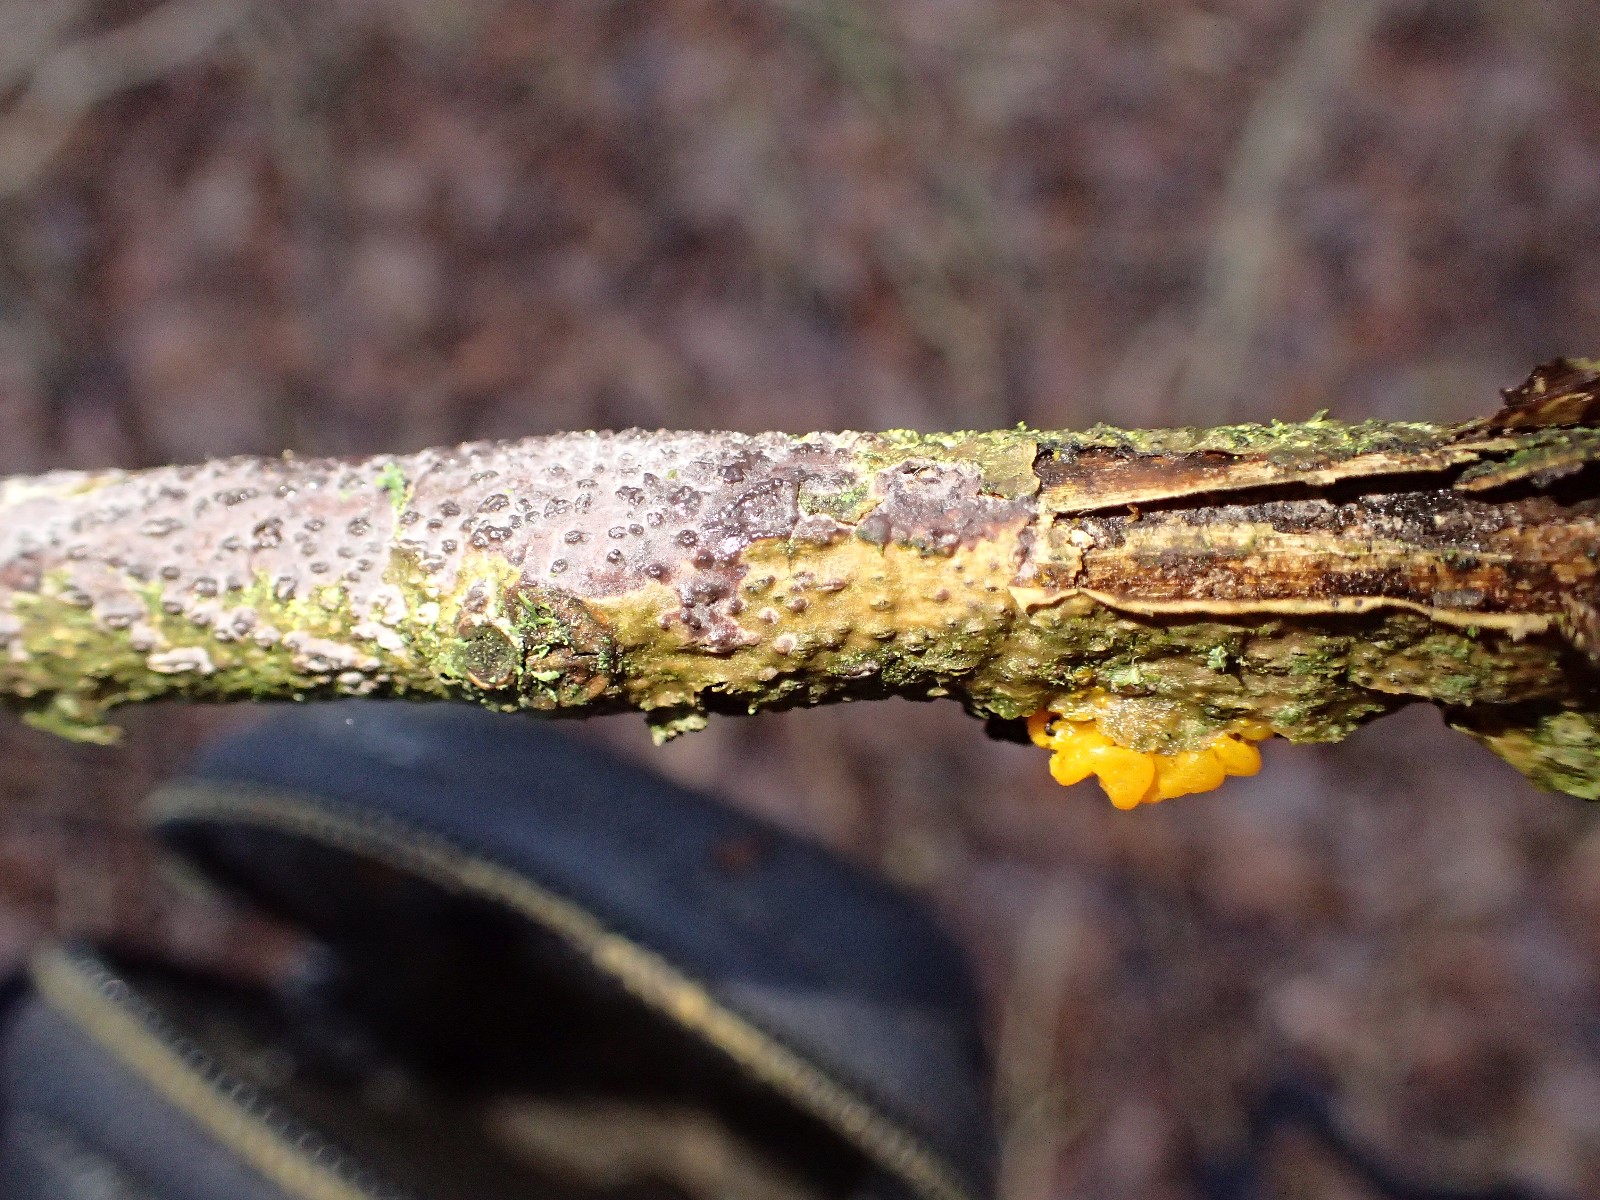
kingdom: Fungi
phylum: Basidiomycota
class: Agaricomycetes
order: Russulales
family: Peniophoraceae
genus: Peniophora
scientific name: Peniophora quercina
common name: ege-voksskind
